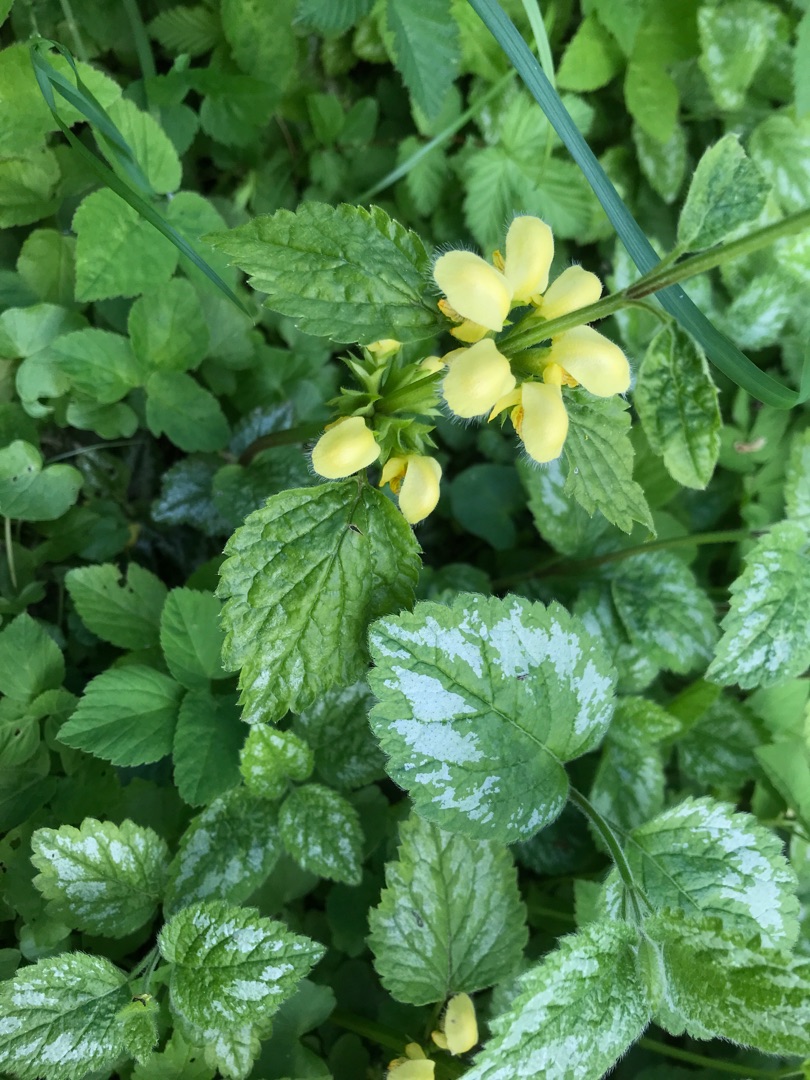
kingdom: Plantae
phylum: Tracheophyta
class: Magnoliopsida
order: Lamiales
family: Lamiaceae
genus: Lamium
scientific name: Lamium galeobdolon
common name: Have-guldnælde
